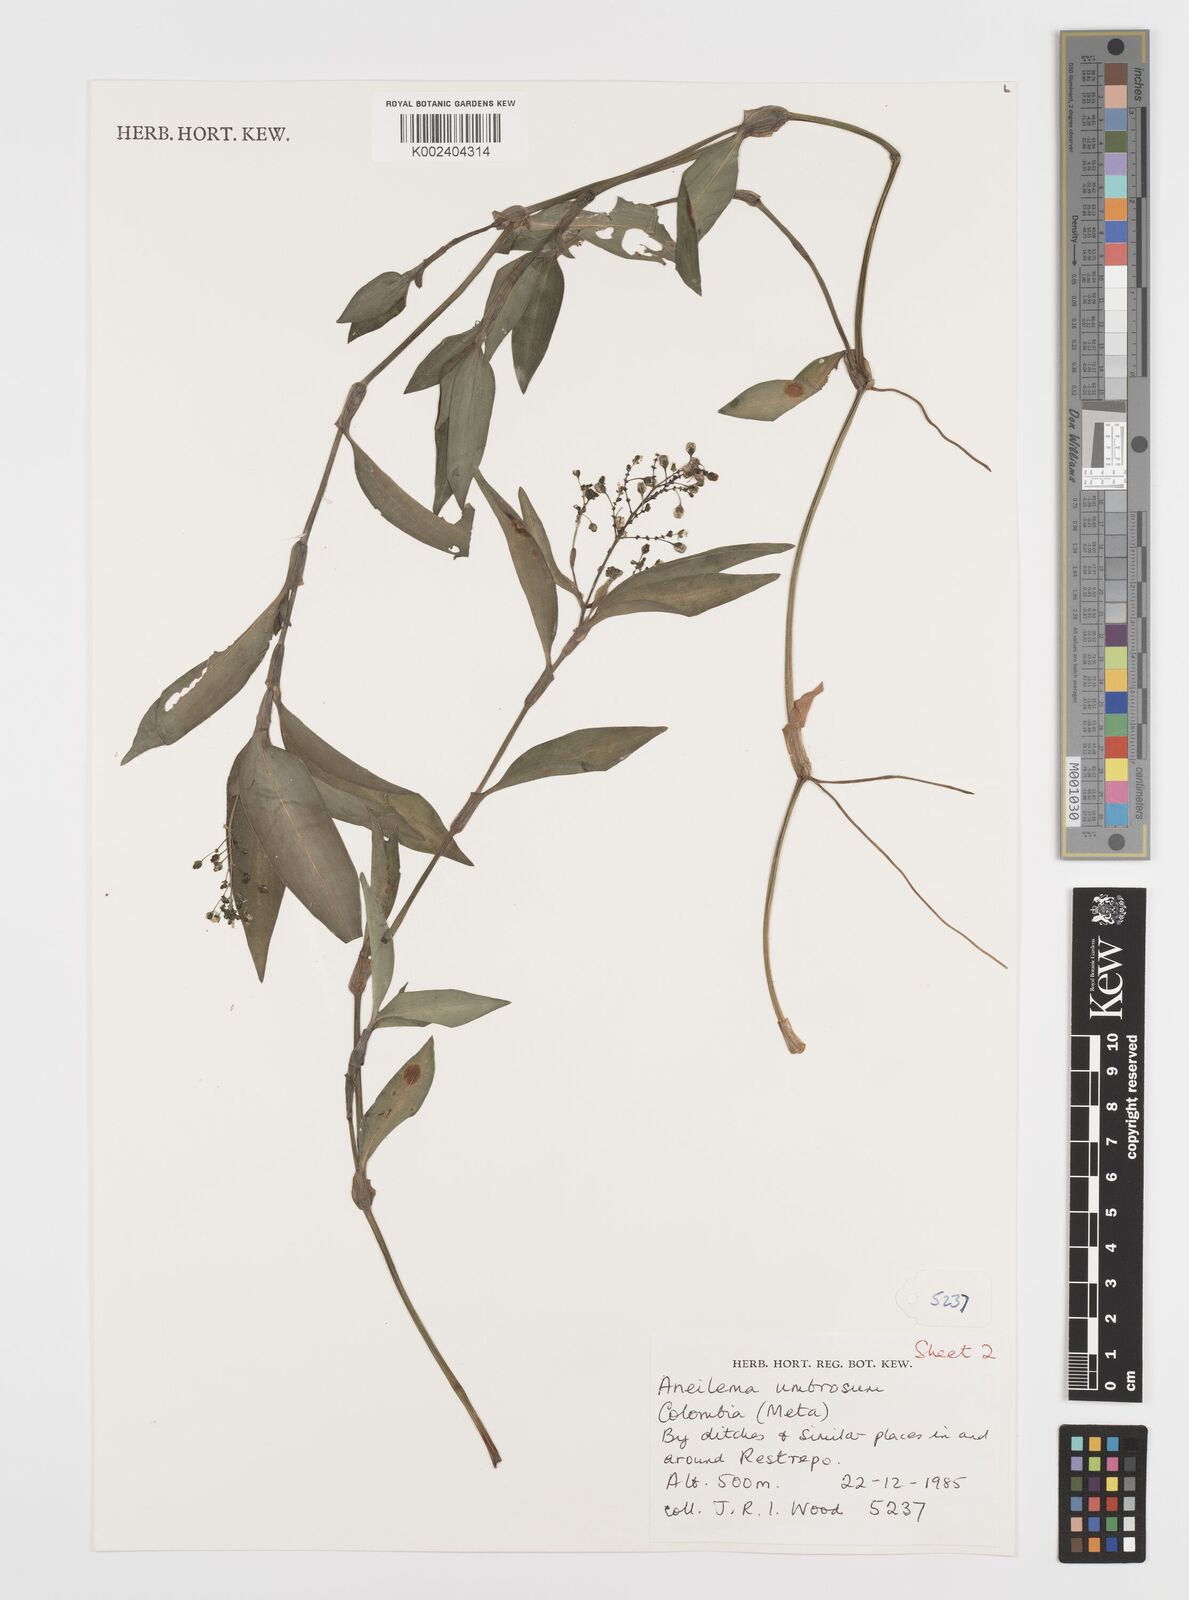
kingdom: Plantae
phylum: Tracheophyta
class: Liliopsida
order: Commelinales
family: Commelinaceae
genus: Aneilema
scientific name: Aneilema umbrosum
